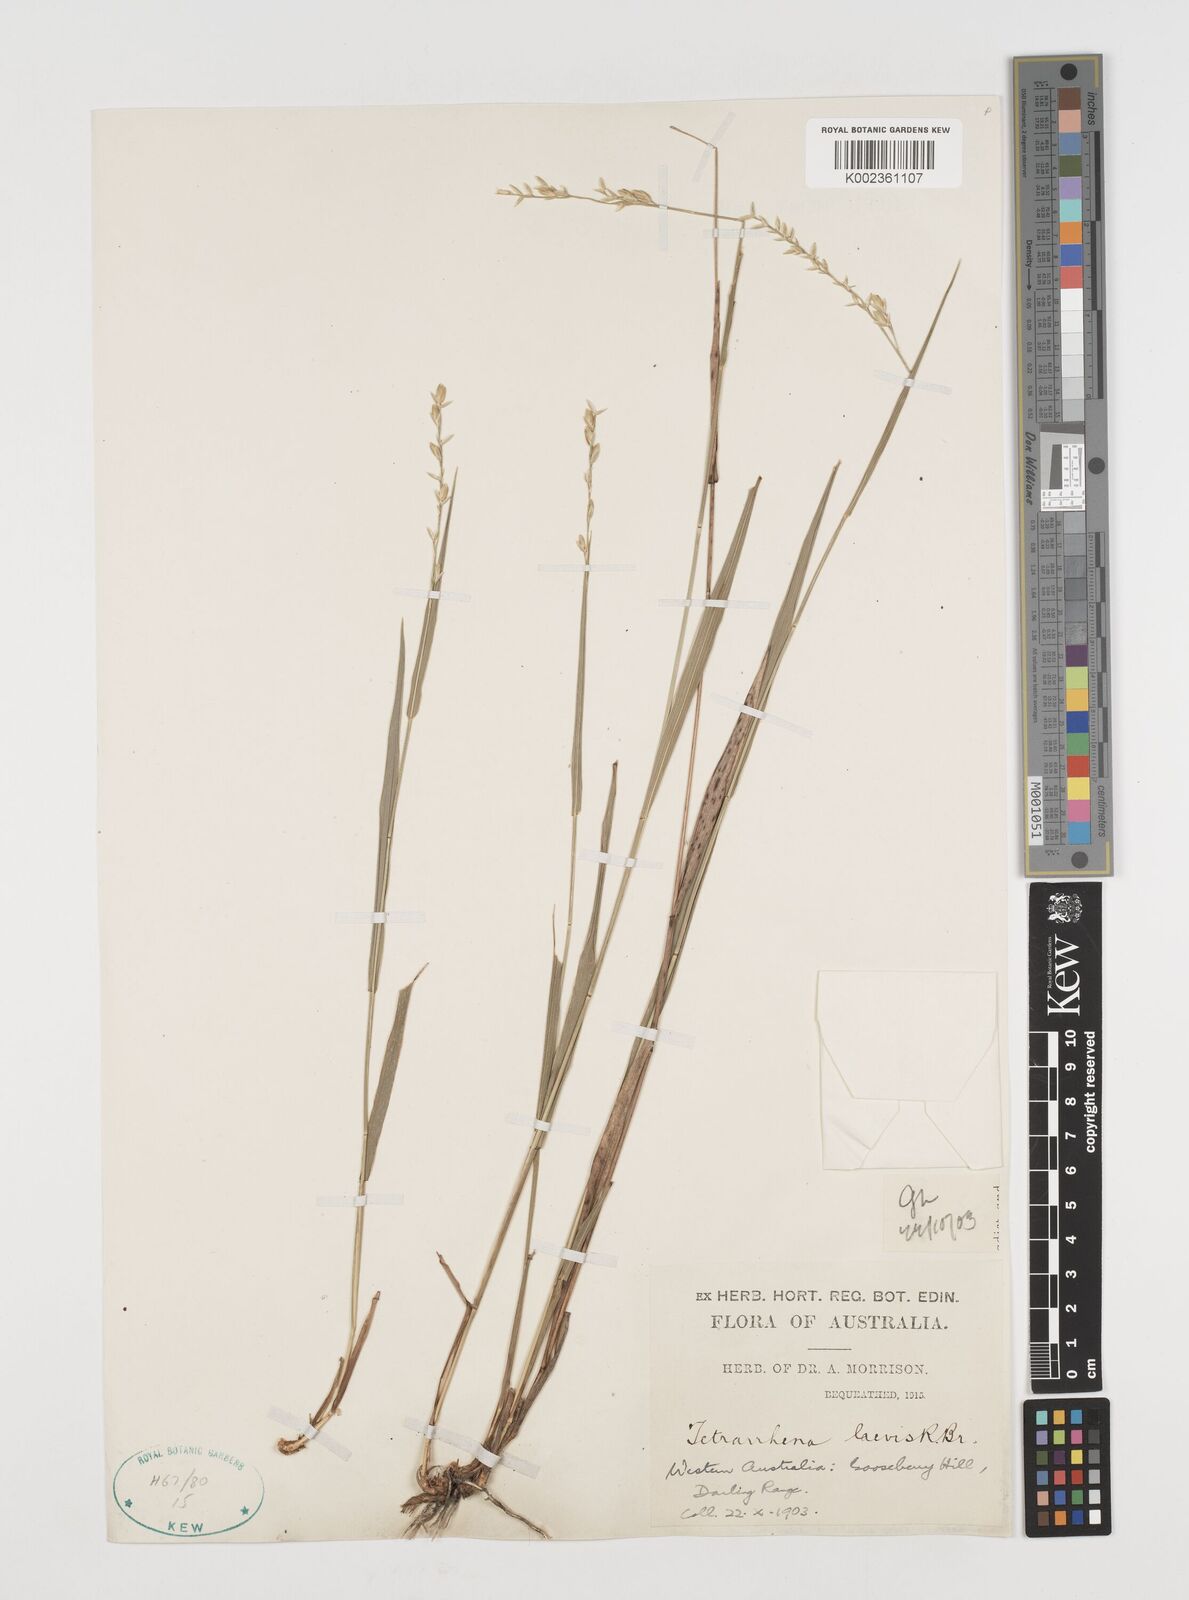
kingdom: Plantae
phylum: Tracheophyta
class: Liliopsida
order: Poales
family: Poaceae
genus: Tetrarrhena
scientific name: Tetrarrhena laevis
